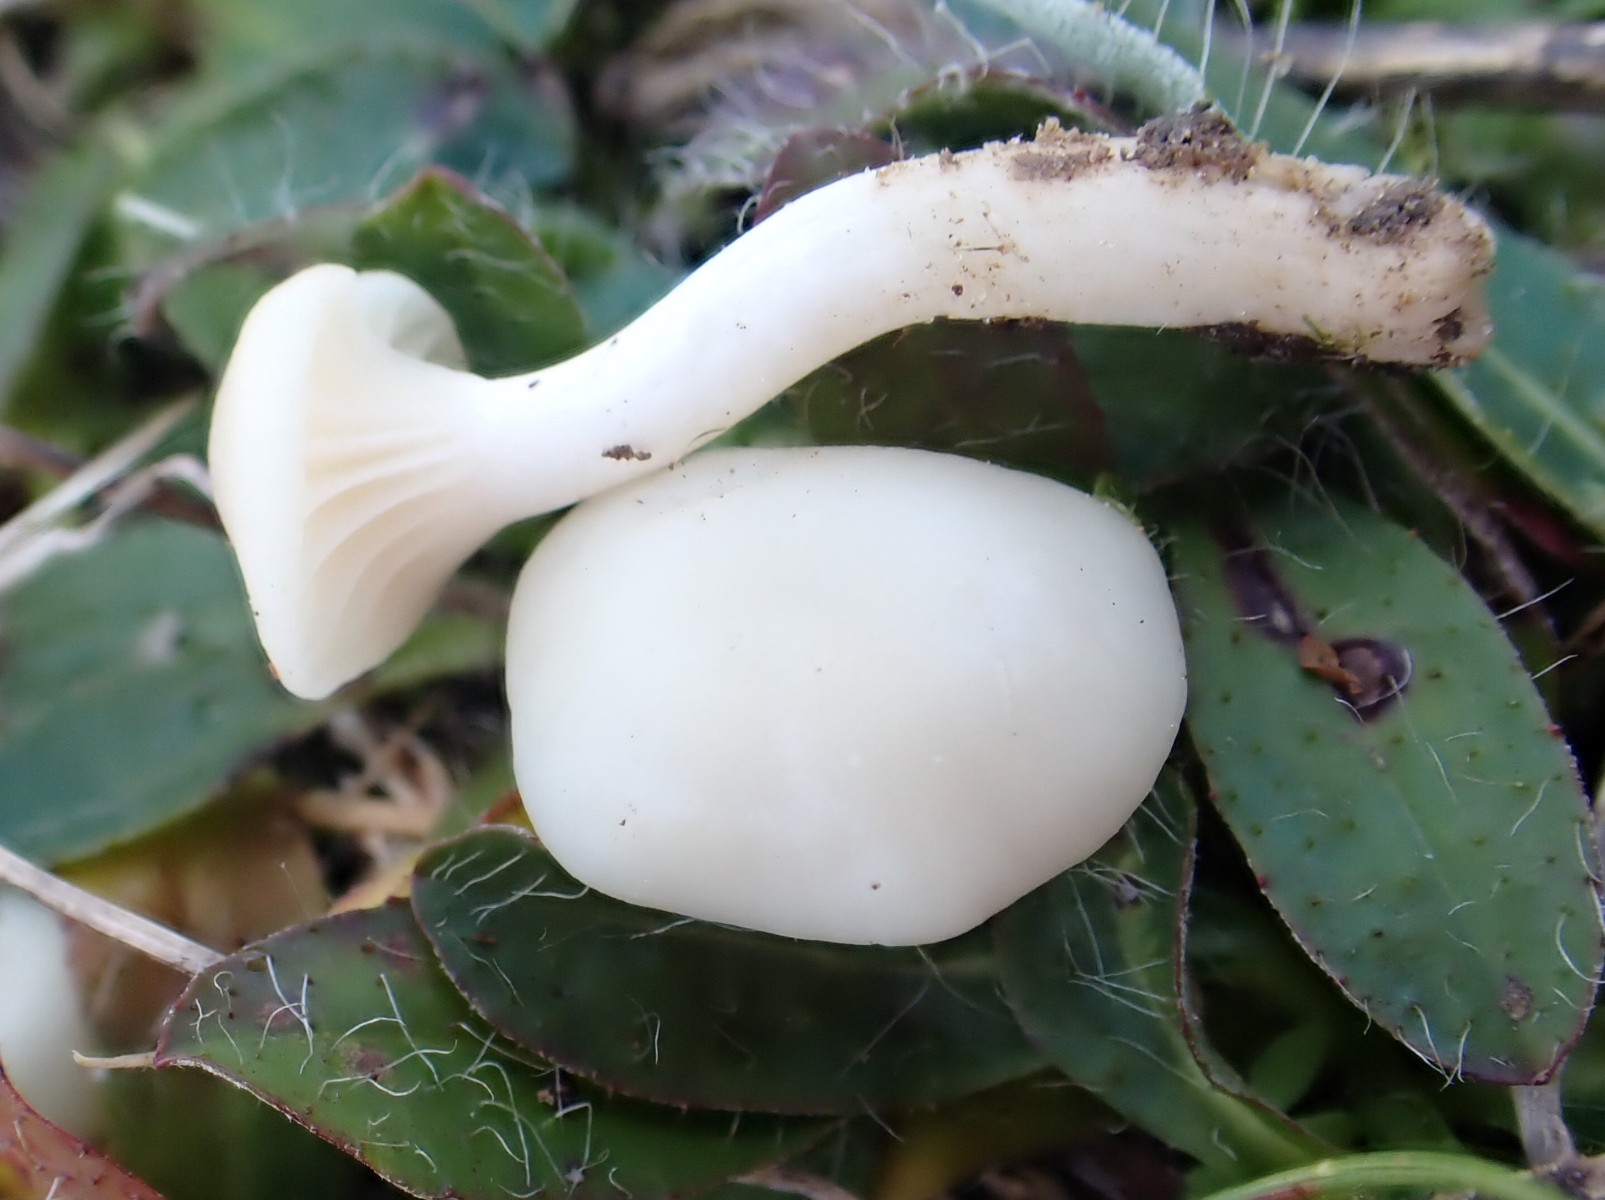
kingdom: Fungi
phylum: Basidiomycota
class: Agaricomycetes
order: Agaricales
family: Hygrophoraceae
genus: Cuphophyllus
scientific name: Cuphophyllus virgineus
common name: snehvid vokshat
